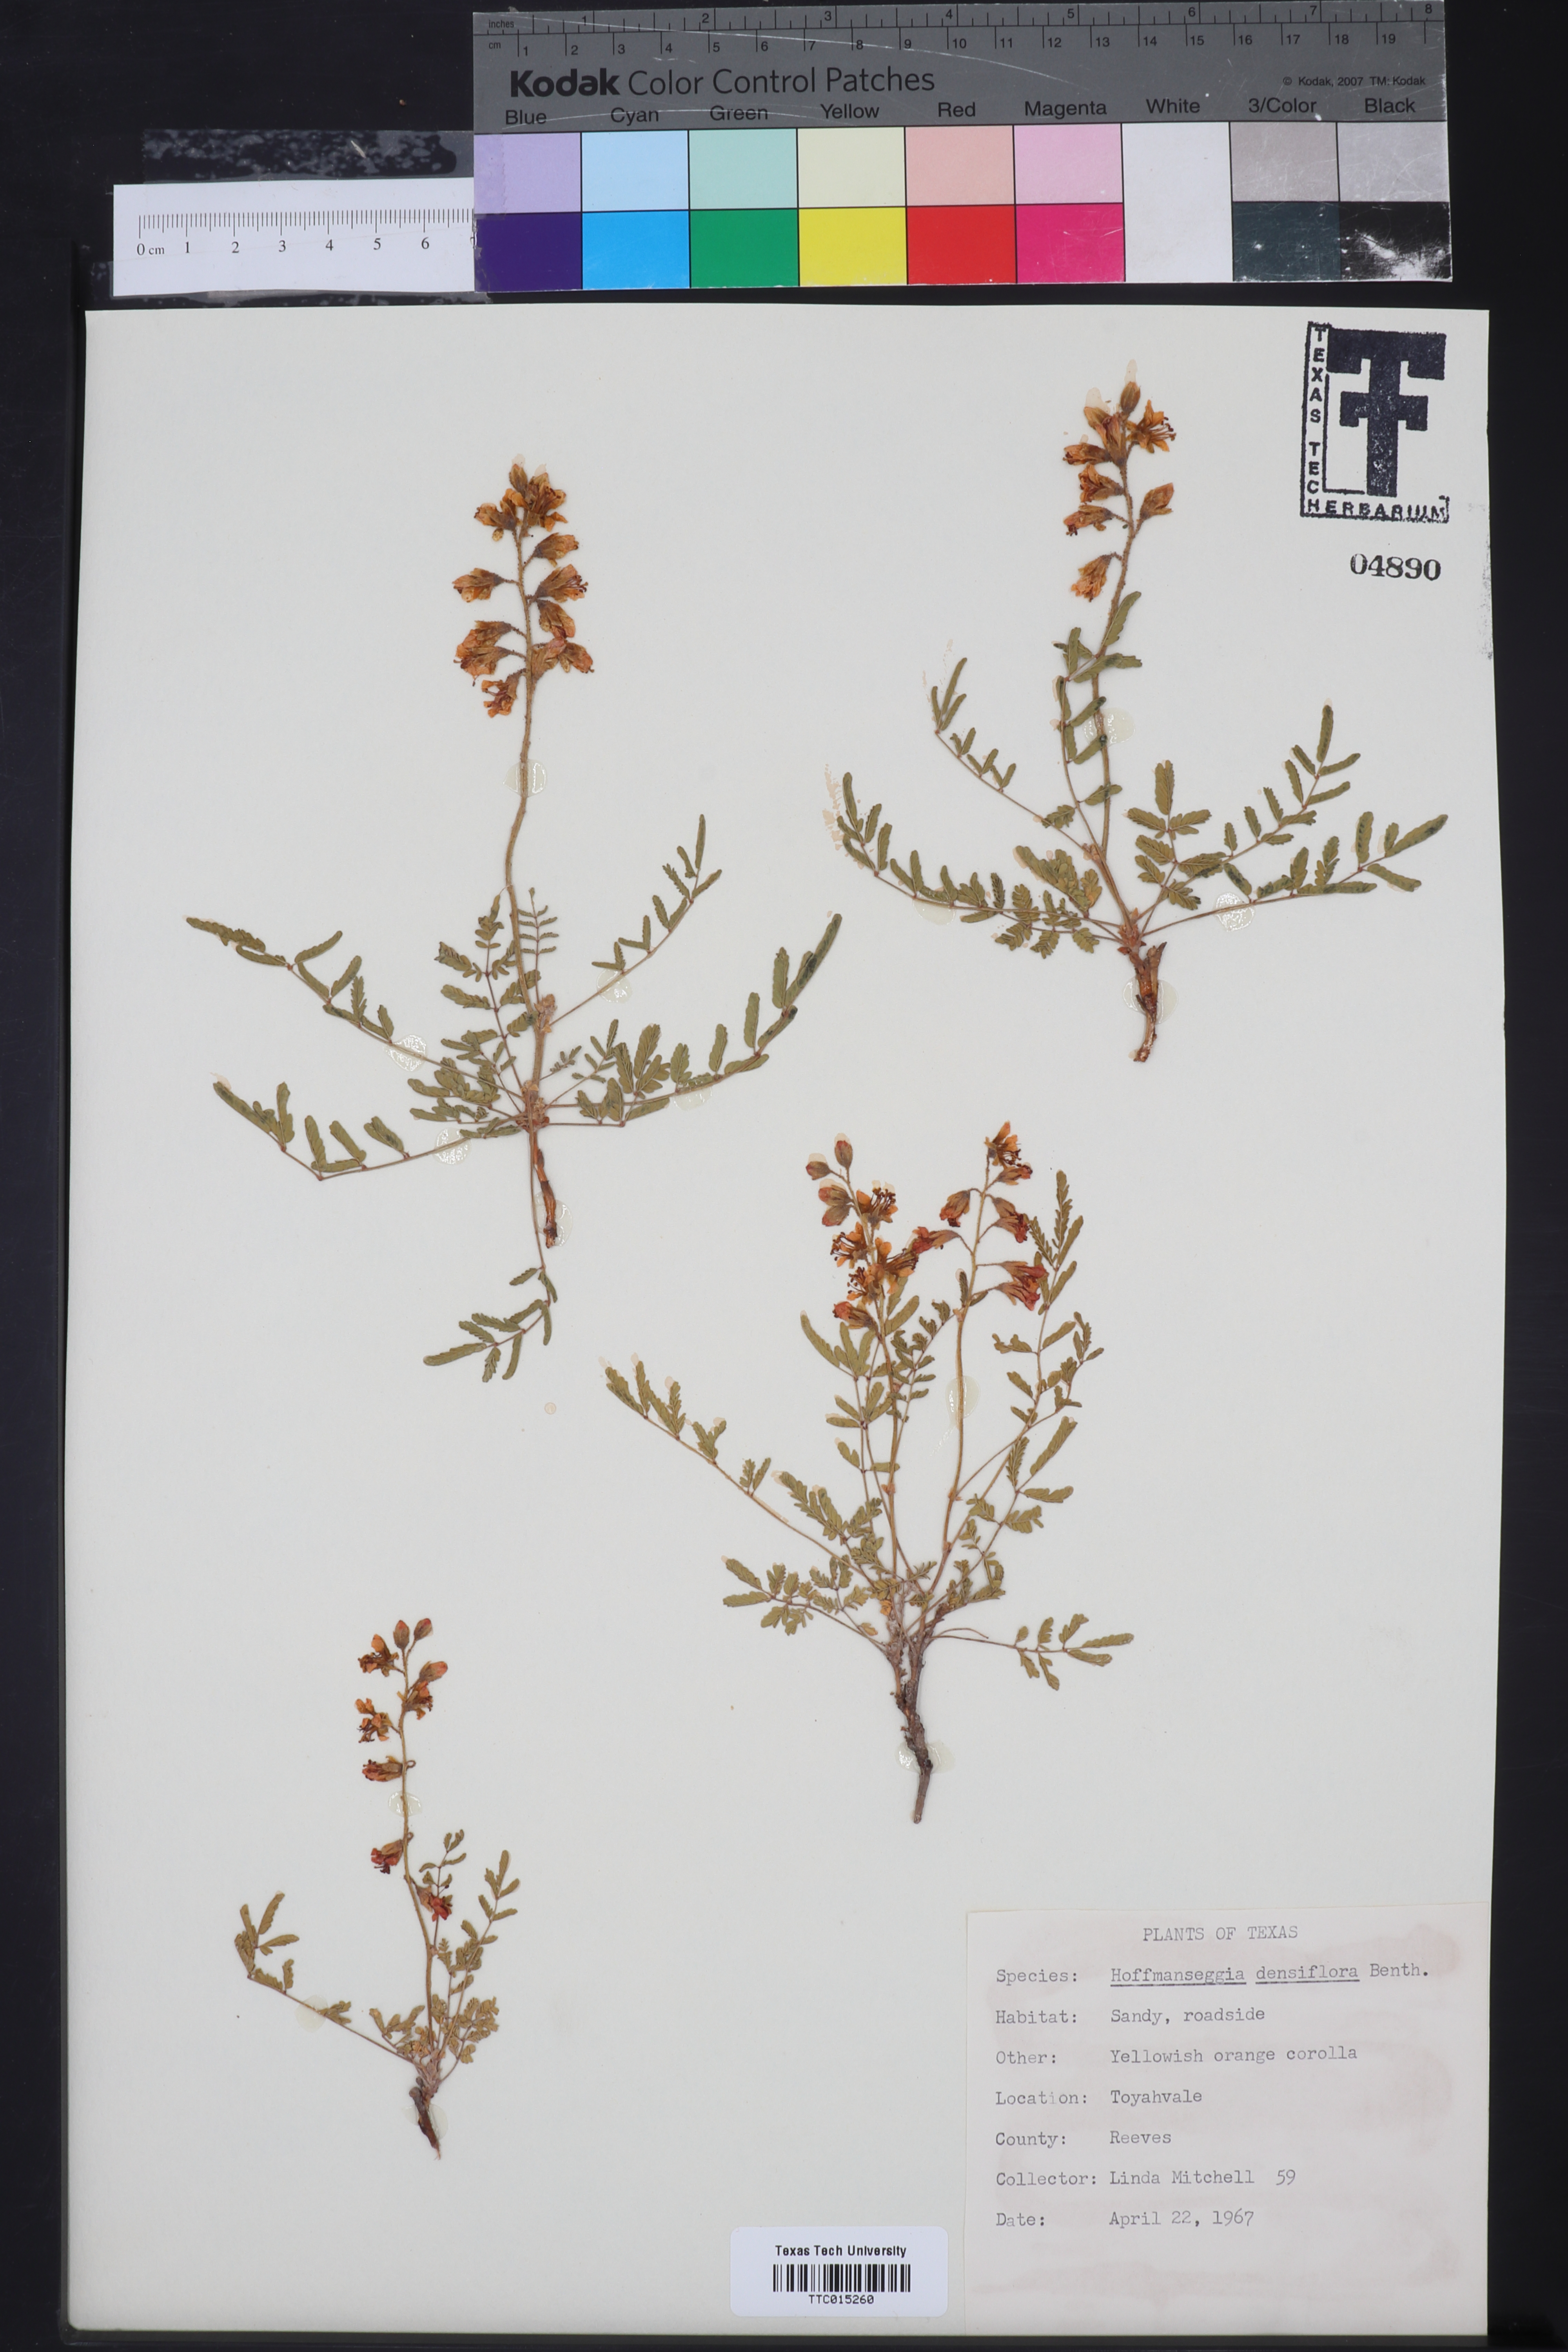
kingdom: Plantae
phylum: Tracheophyta
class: Magnoliopsida
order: Fabales
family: Fabaceae
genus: Hoffmannseggia
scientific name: Hoffmannseggia glauca
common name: Pignut
